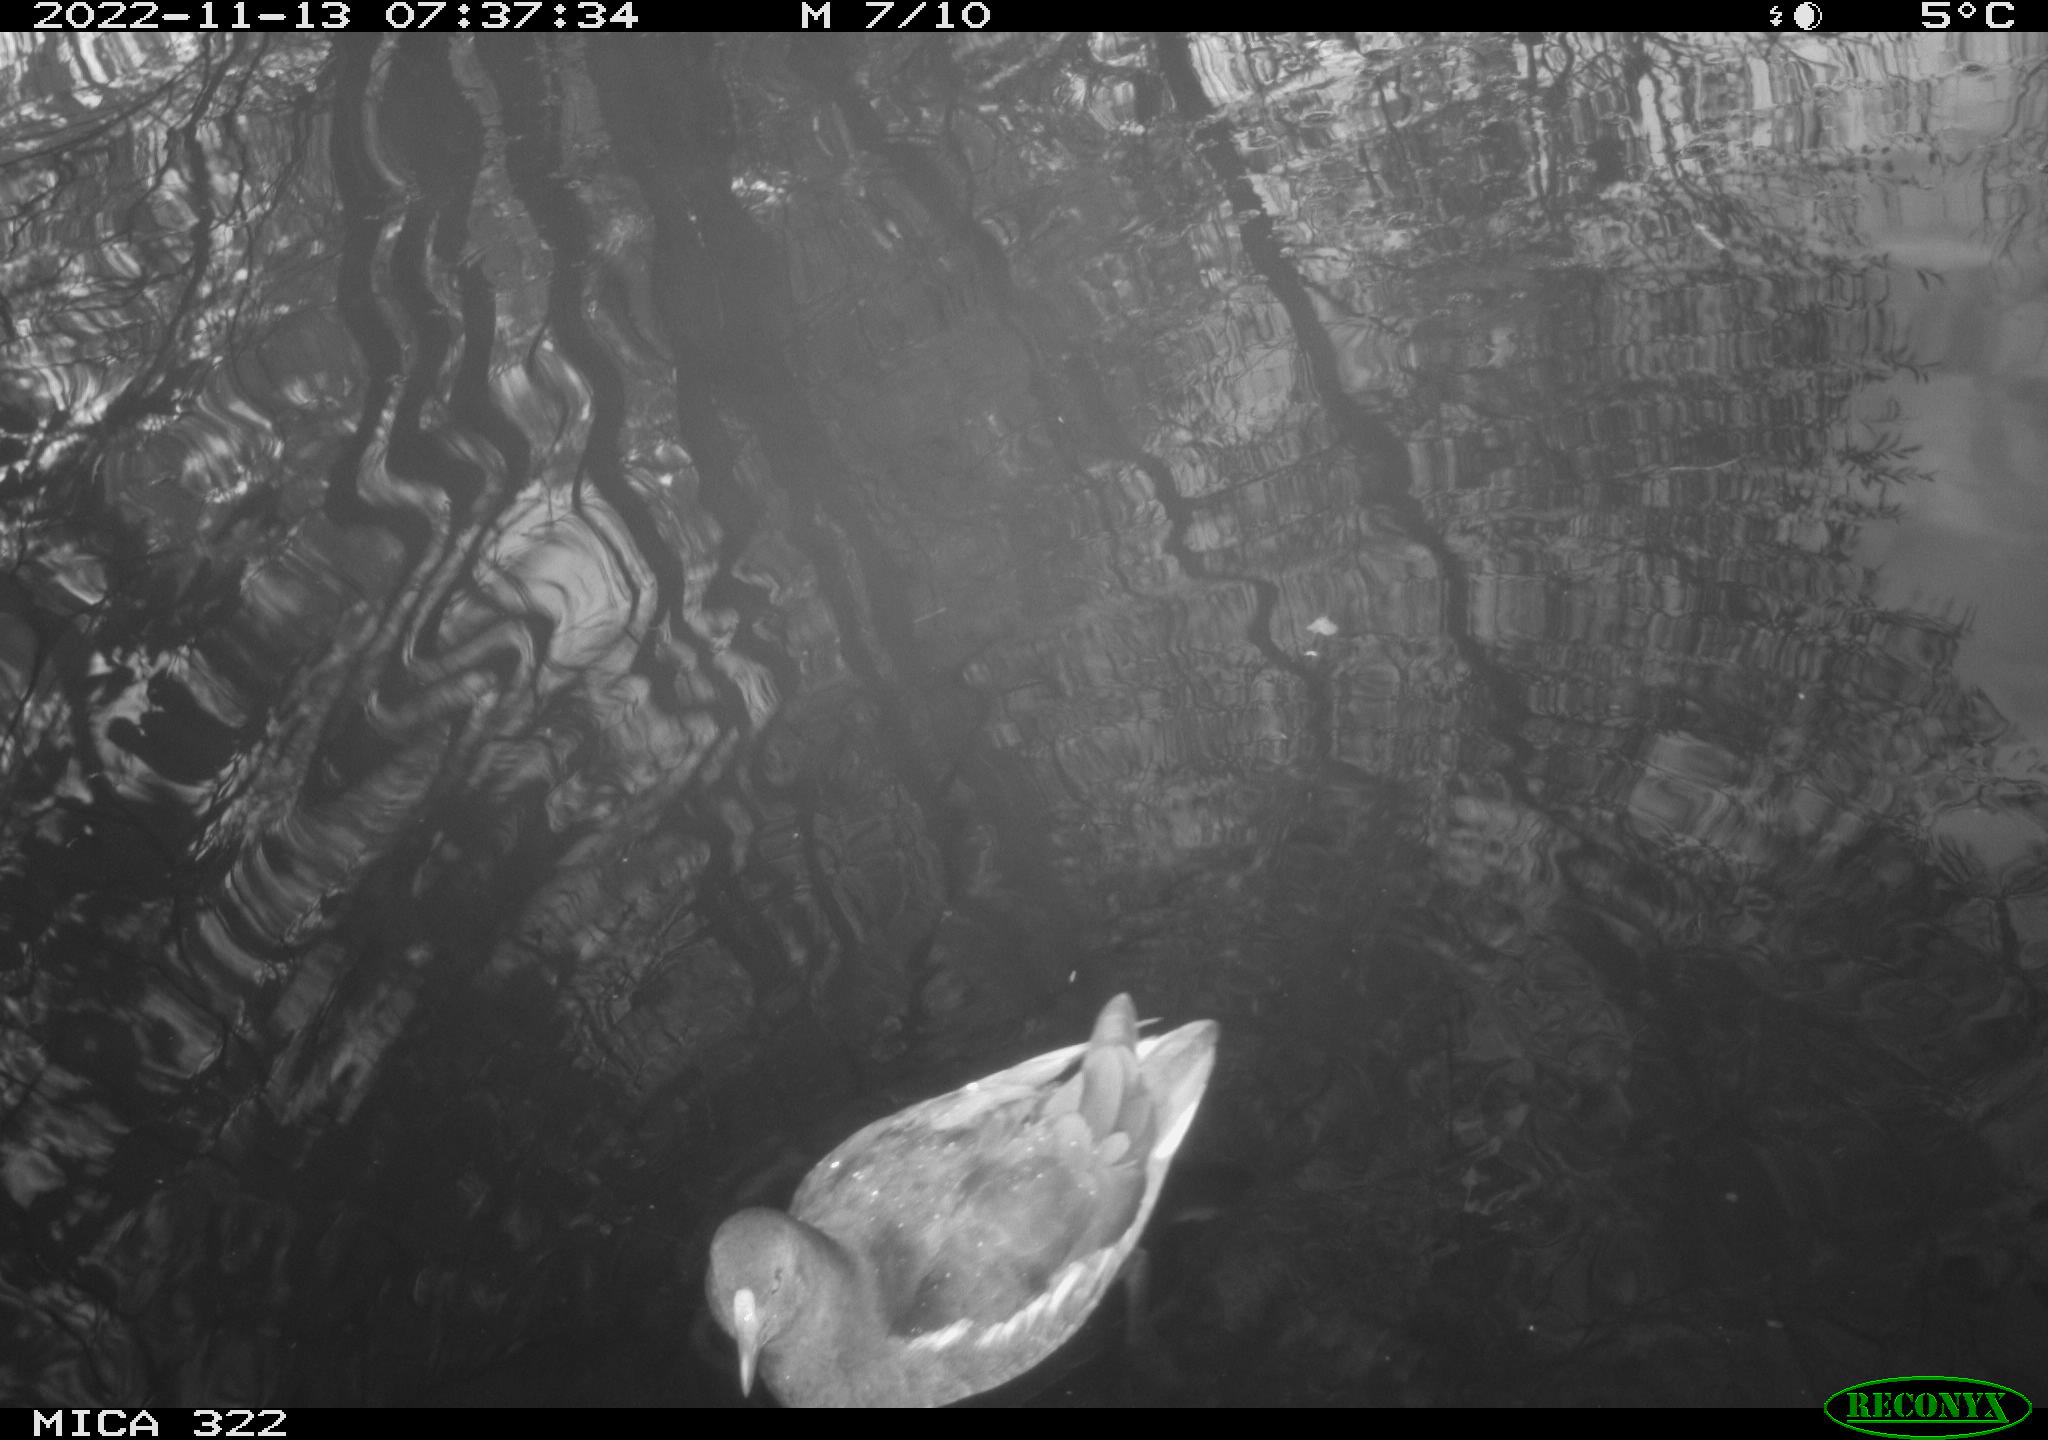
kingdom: Animalia
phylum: Chordata
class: Aves
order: Gruiformes
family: Rallidae
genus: Gallinula
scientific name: Gallinula chloropus
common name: Common moorhen
